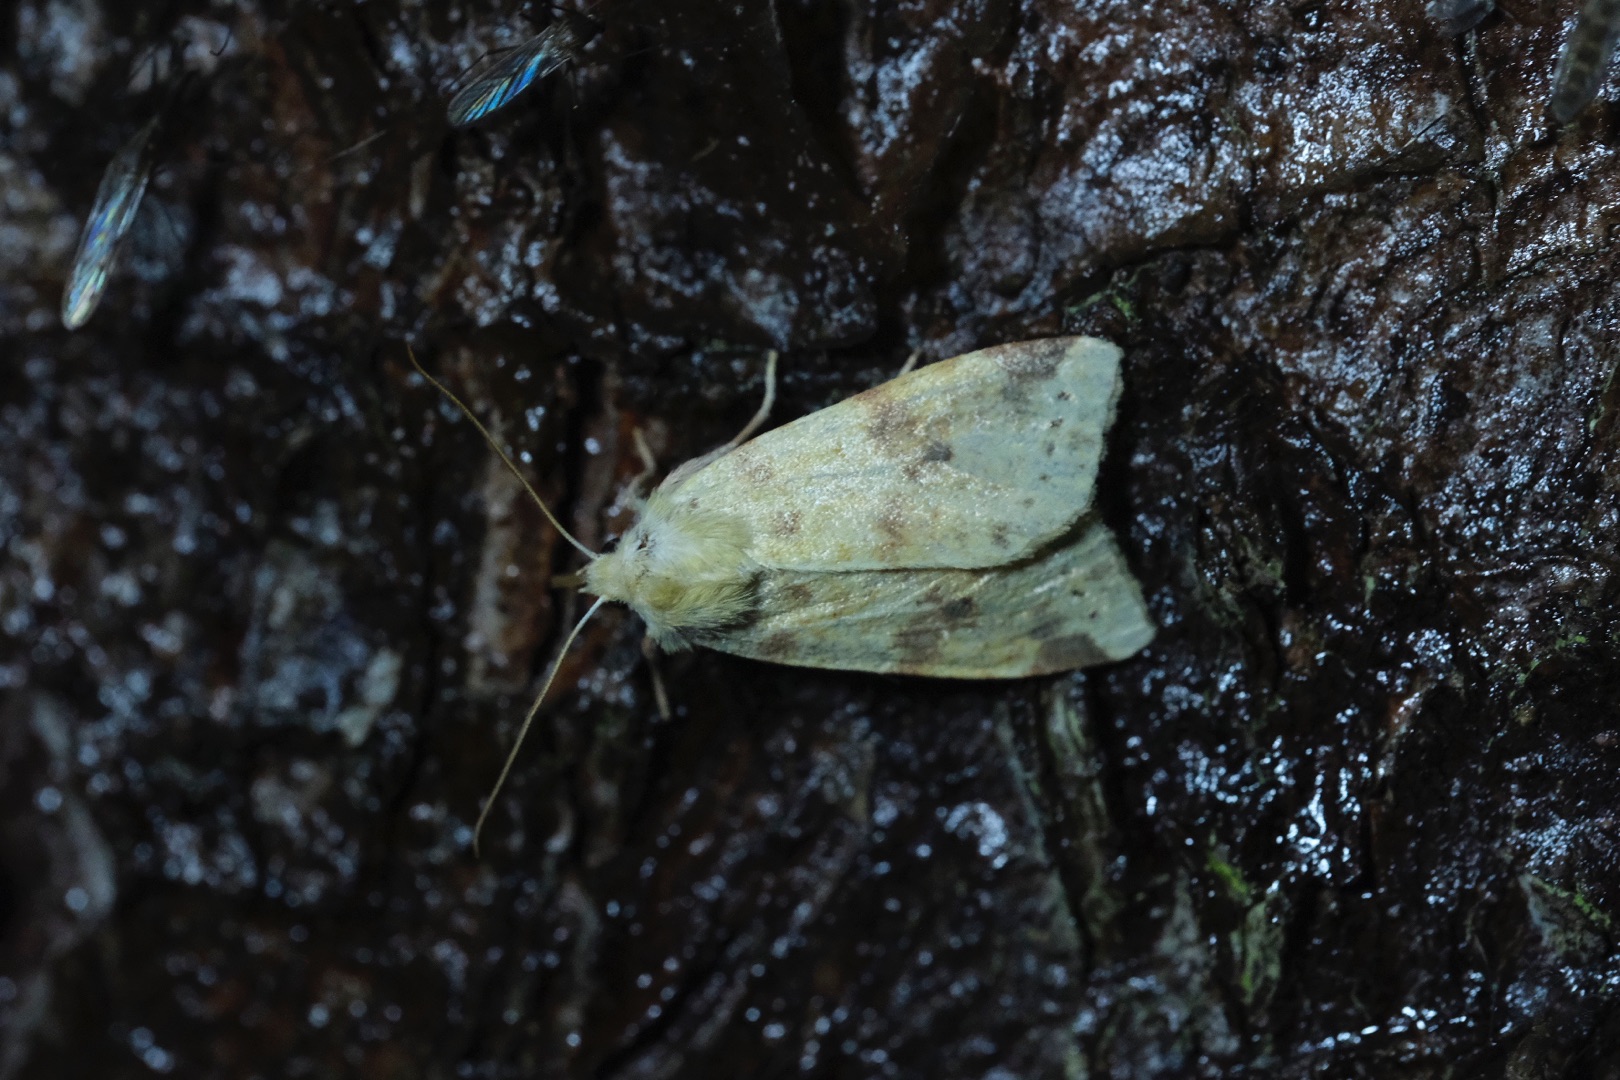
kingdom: Animalia
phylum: Arthropoda
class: Insecta
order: Lepidoptera
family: Noctuidae
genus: Xanthia
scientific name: Xanthia Cirrhia icteritia
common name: Brombær-guldugle
